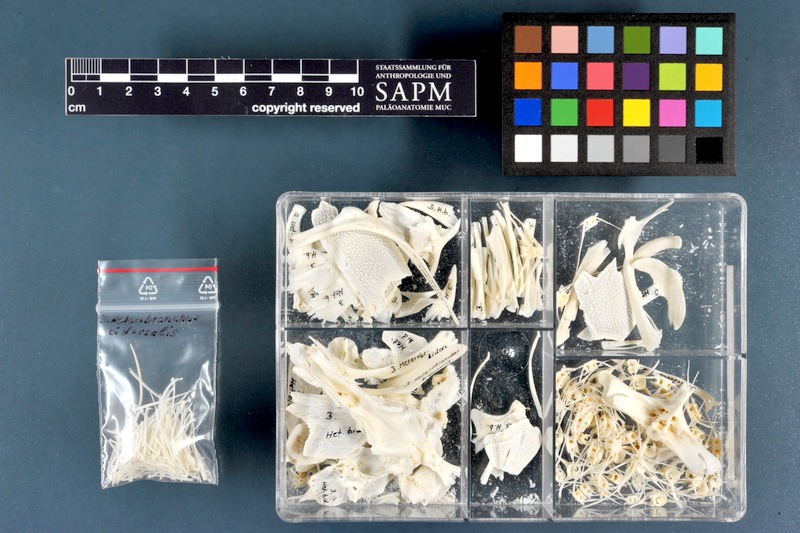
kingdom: Animalia
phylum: Chordata
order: Siluriformes
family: Clariidae
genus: Heterobranchus
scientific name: Heterobranchus bidorsalis
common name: Eel-like fattyfin catfish
